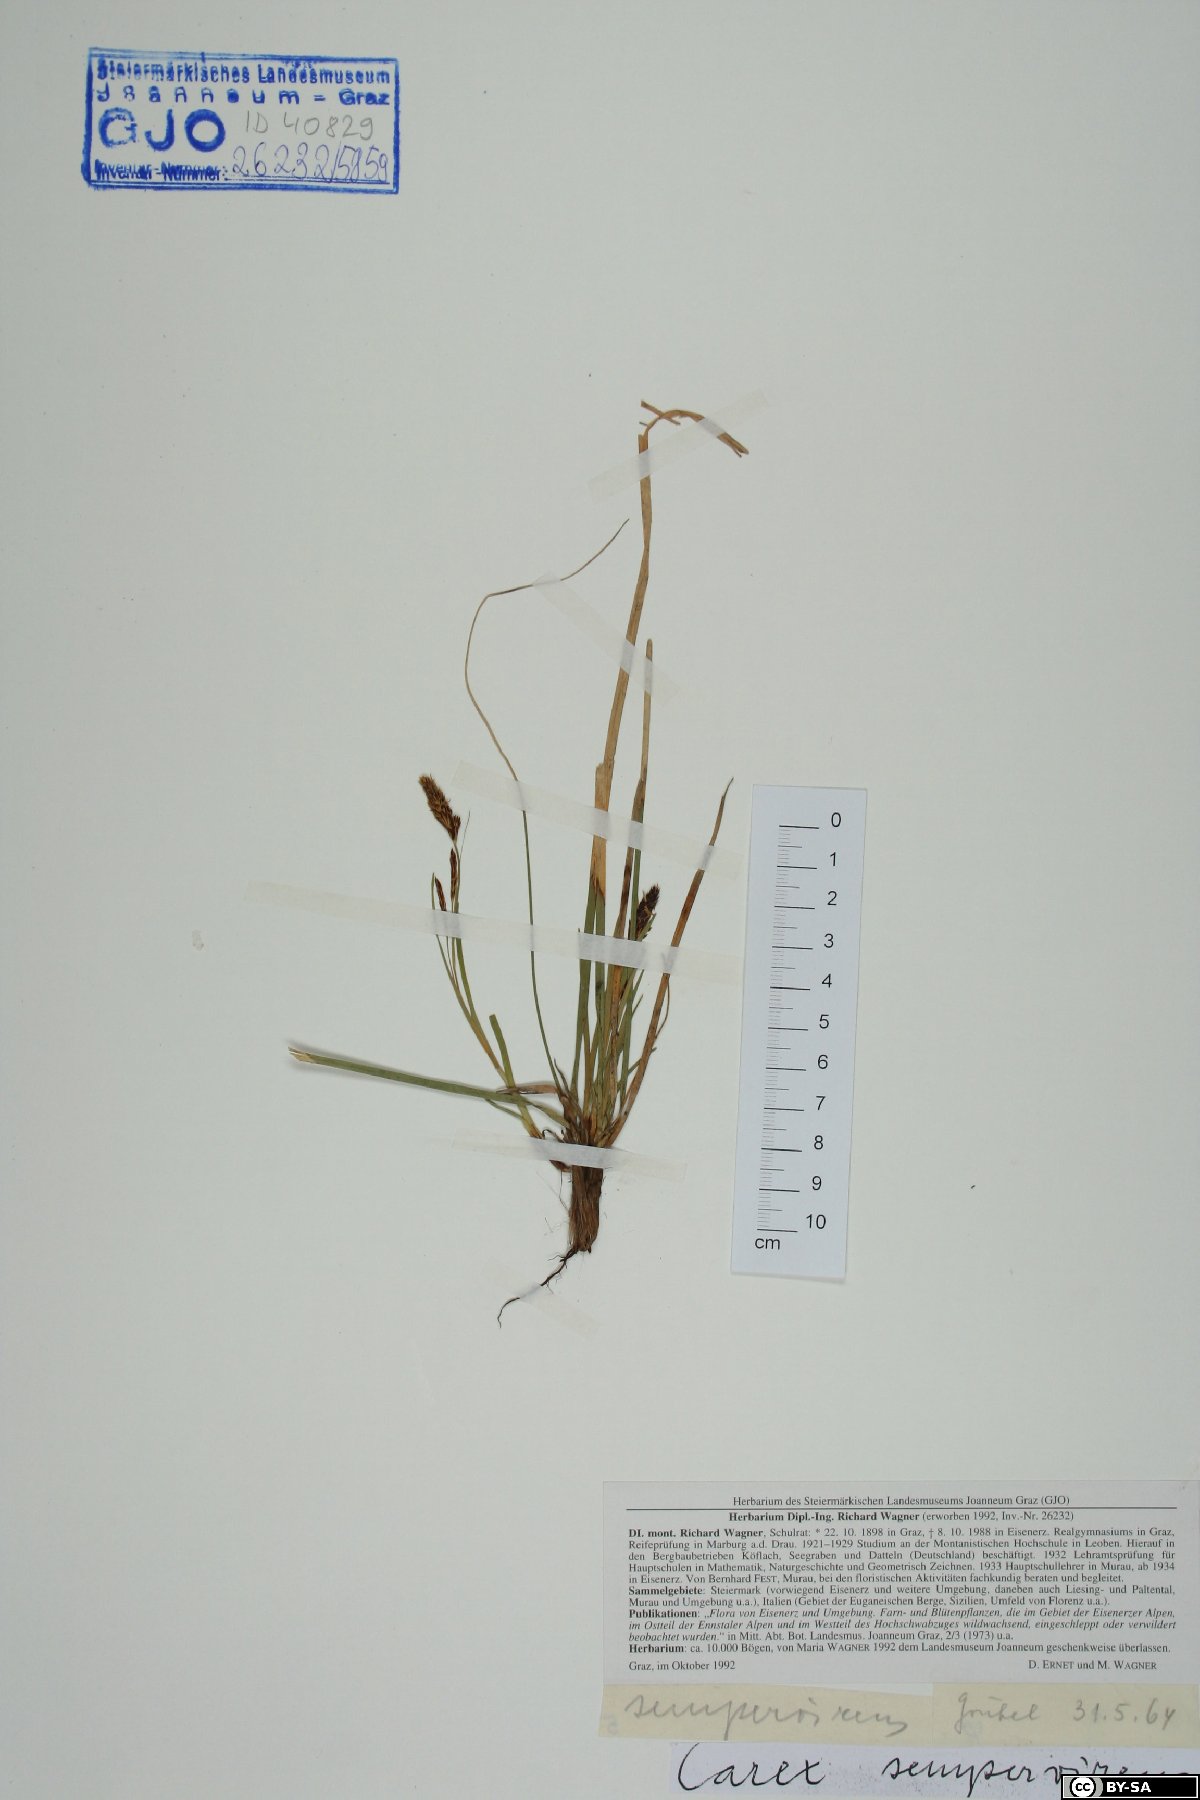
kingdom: Plantae
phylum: Tracheophyta
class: Liliopsida
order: Poales
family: Cyperaceae
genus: Carex
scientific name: Carex sempervirens
